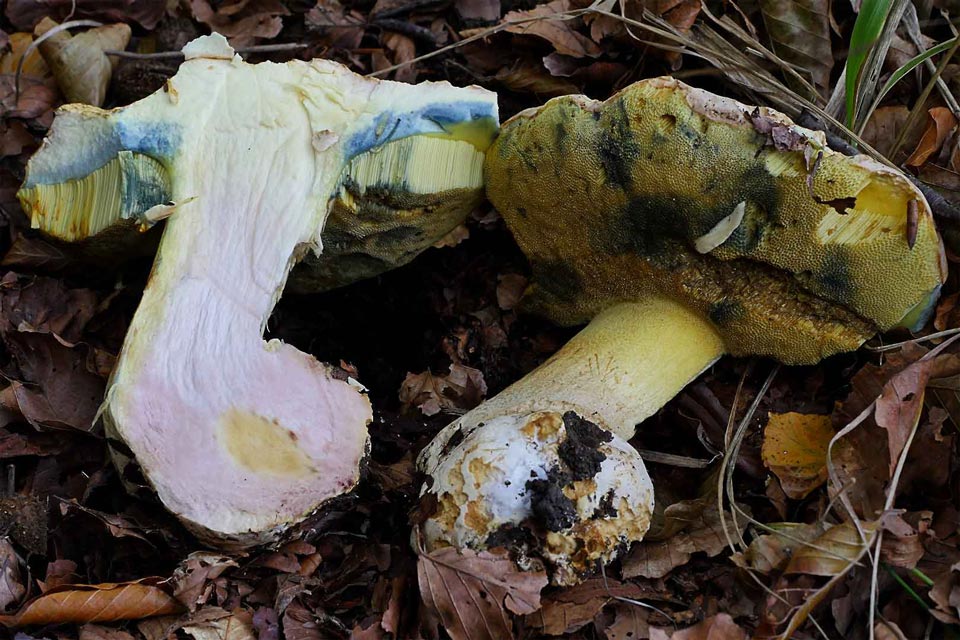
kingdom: Fungi
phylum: Basidiomycota
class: Agaricomycetes
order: Boletales
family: Boletaceae
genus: Butyriboletus
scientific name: Butyriboletus fechtneri
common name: sølvskinnende rørhat
